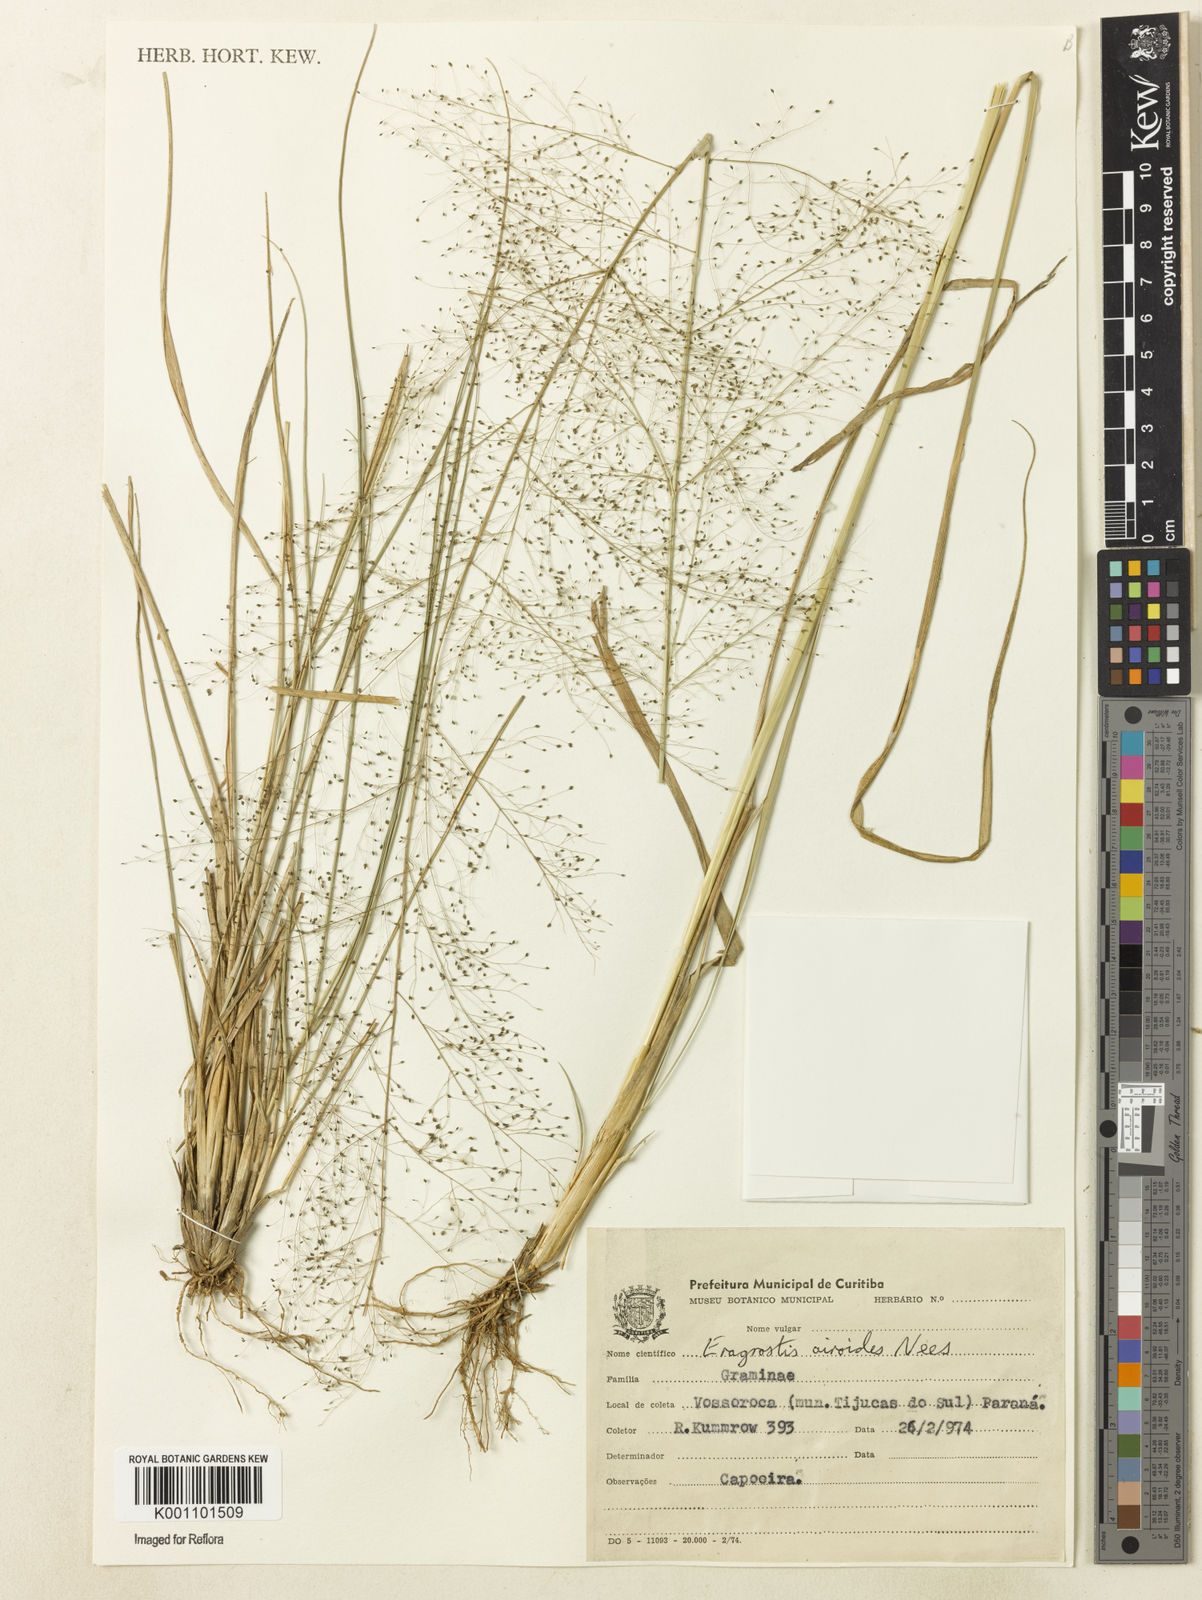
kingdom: Plantae
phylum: Tracheophyta
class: Liliopsida
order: Poales
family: Poaceae
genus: Eragrostis
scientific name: Eragrostis airoides
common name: Darnel lovegrass
